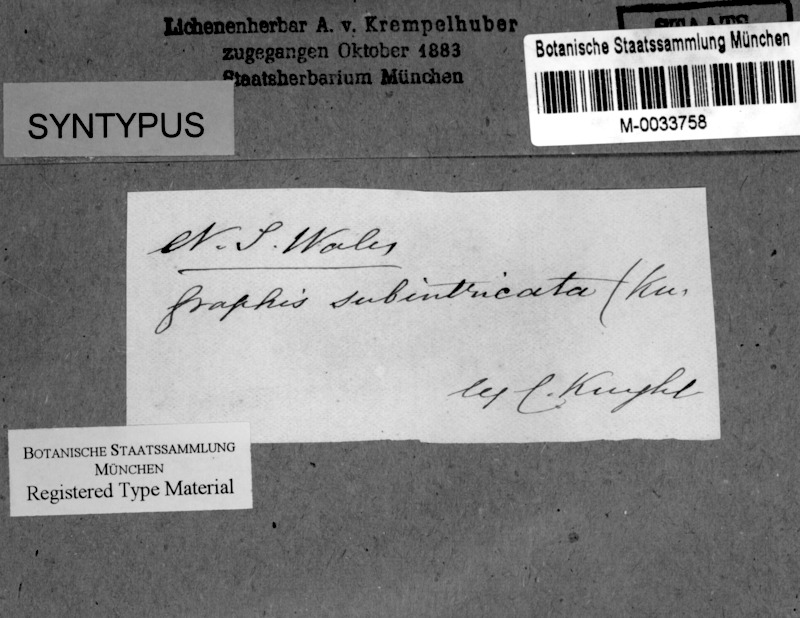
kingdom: Fungi
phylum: Ascomycota
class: Lecanoromycetes
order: Ostropales
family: Graphidaceae
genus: Phaeographis
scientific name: Phaeographis subintricata
